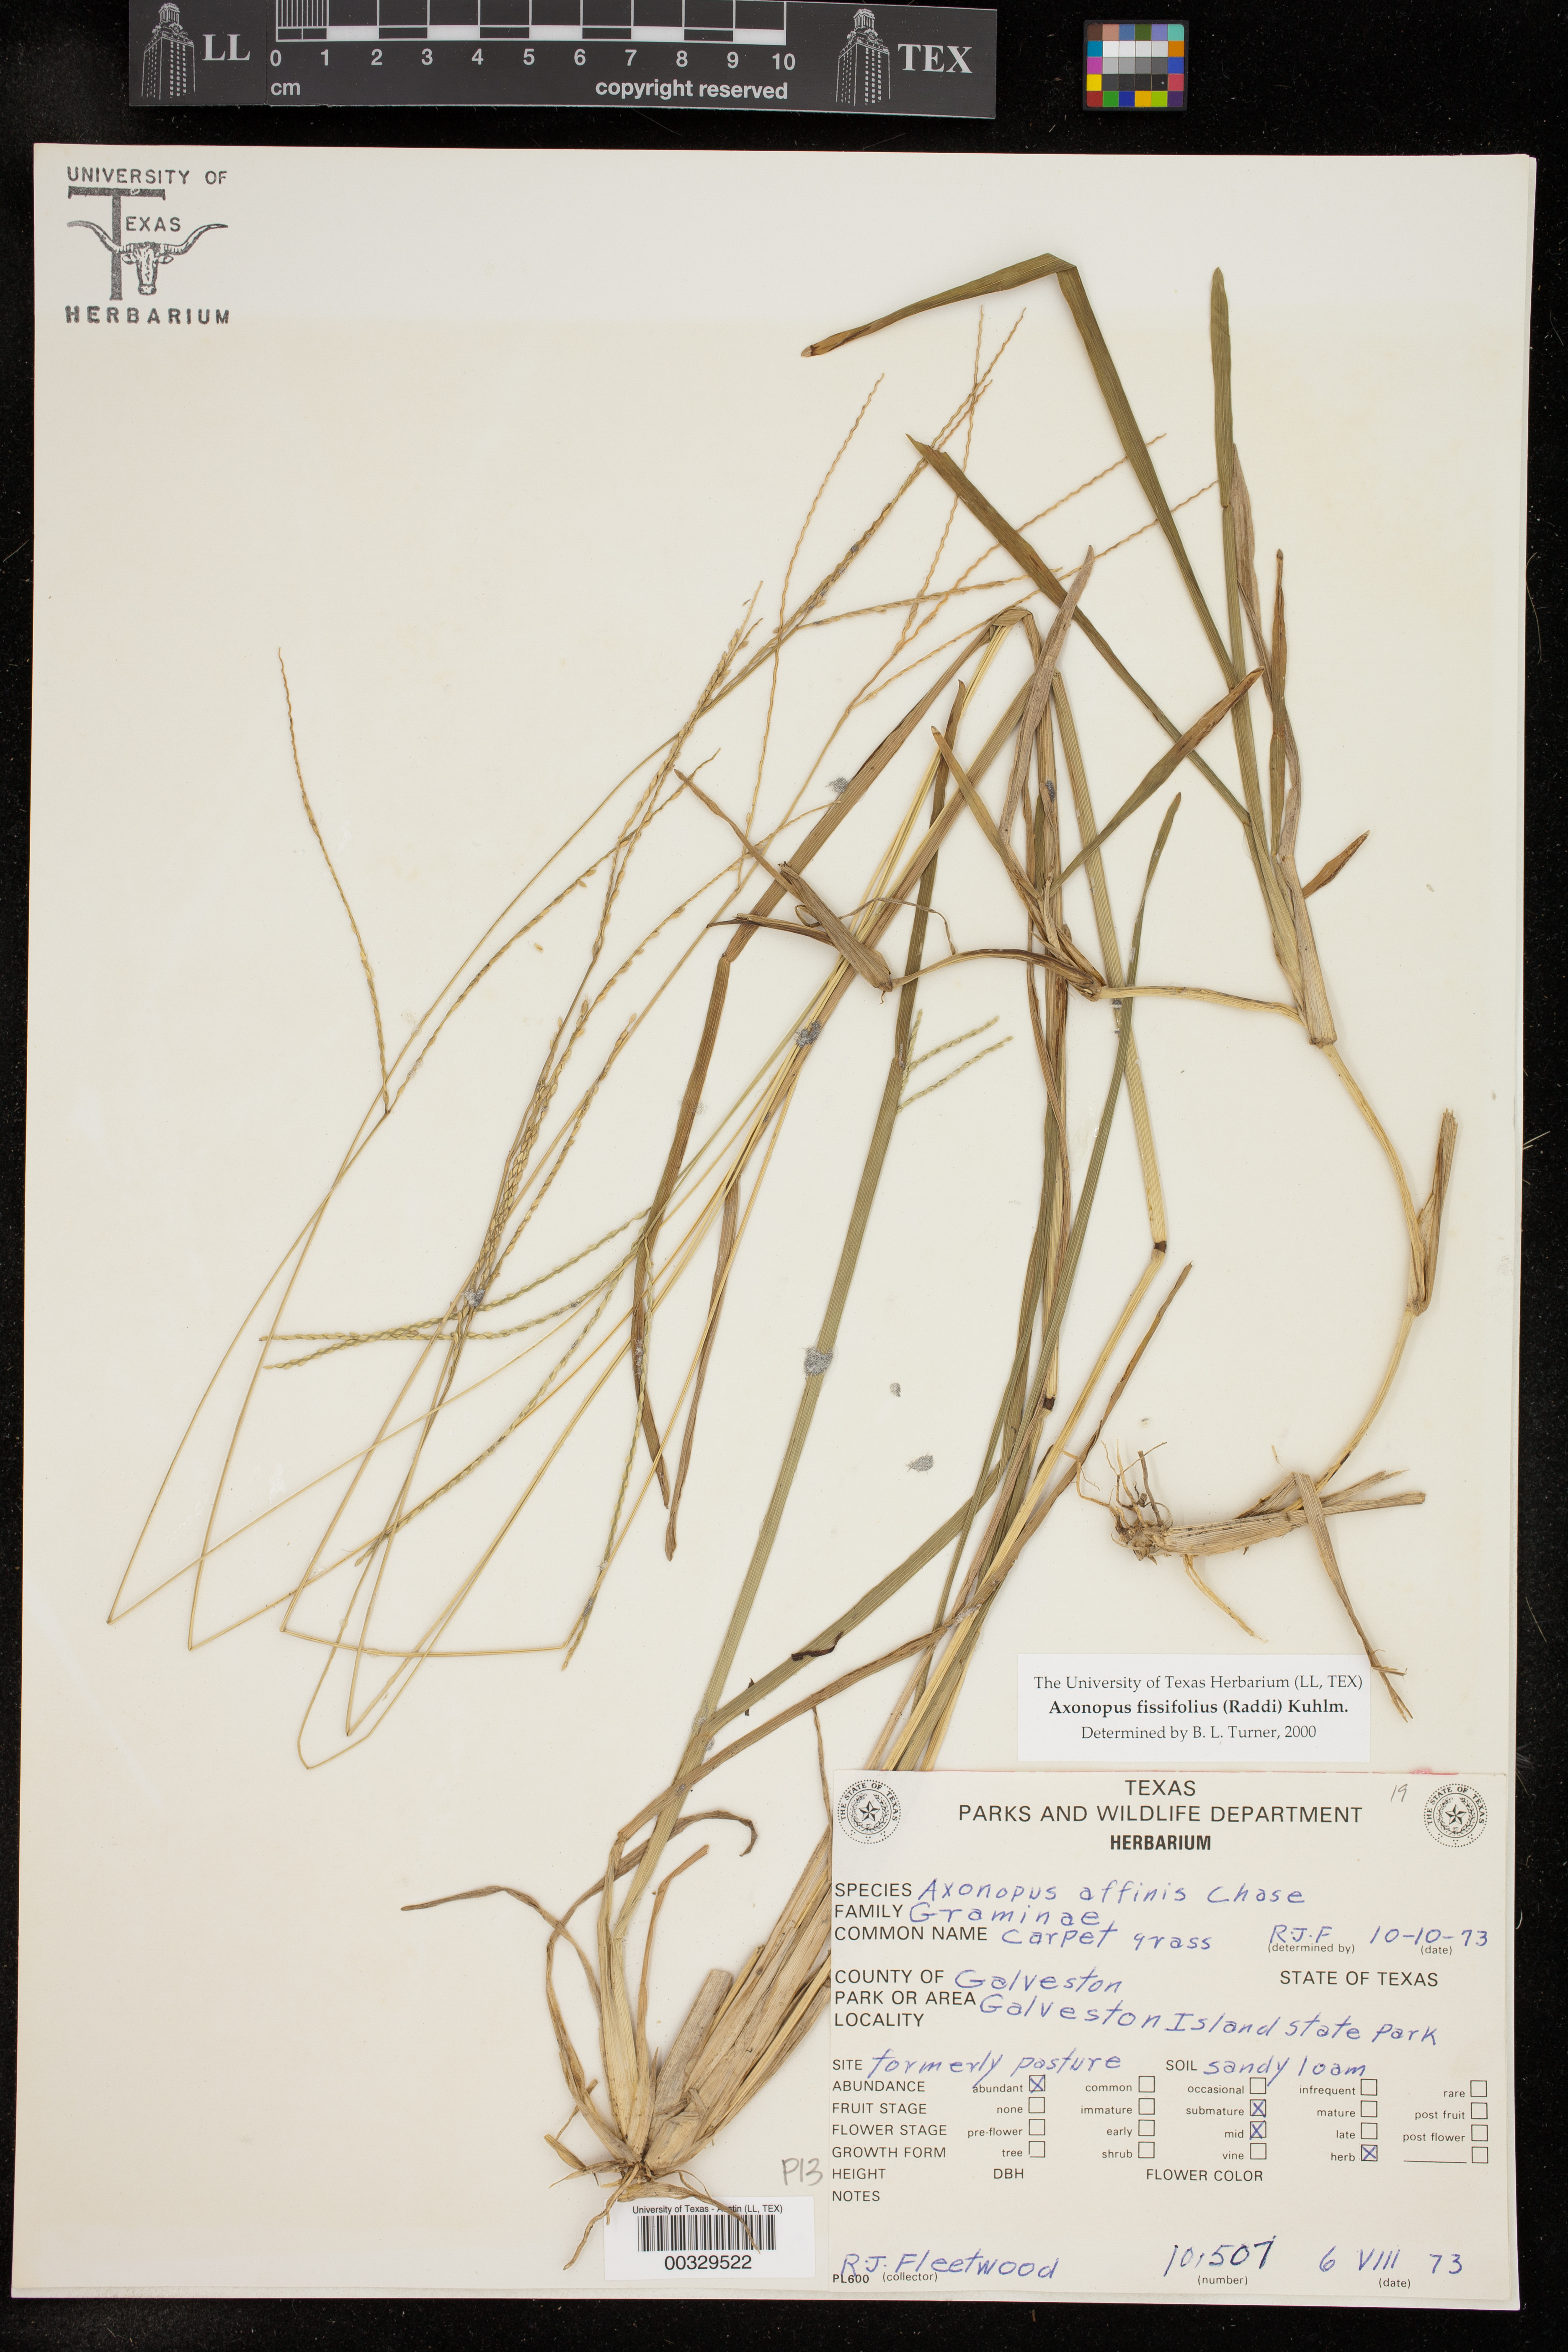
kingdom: Plantae
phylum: Tracheophyta
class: Liliopsida
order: Poales
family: Poaceae
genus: Axonopus
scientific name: Axonopus fissifolius
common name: Common carpetgrass
